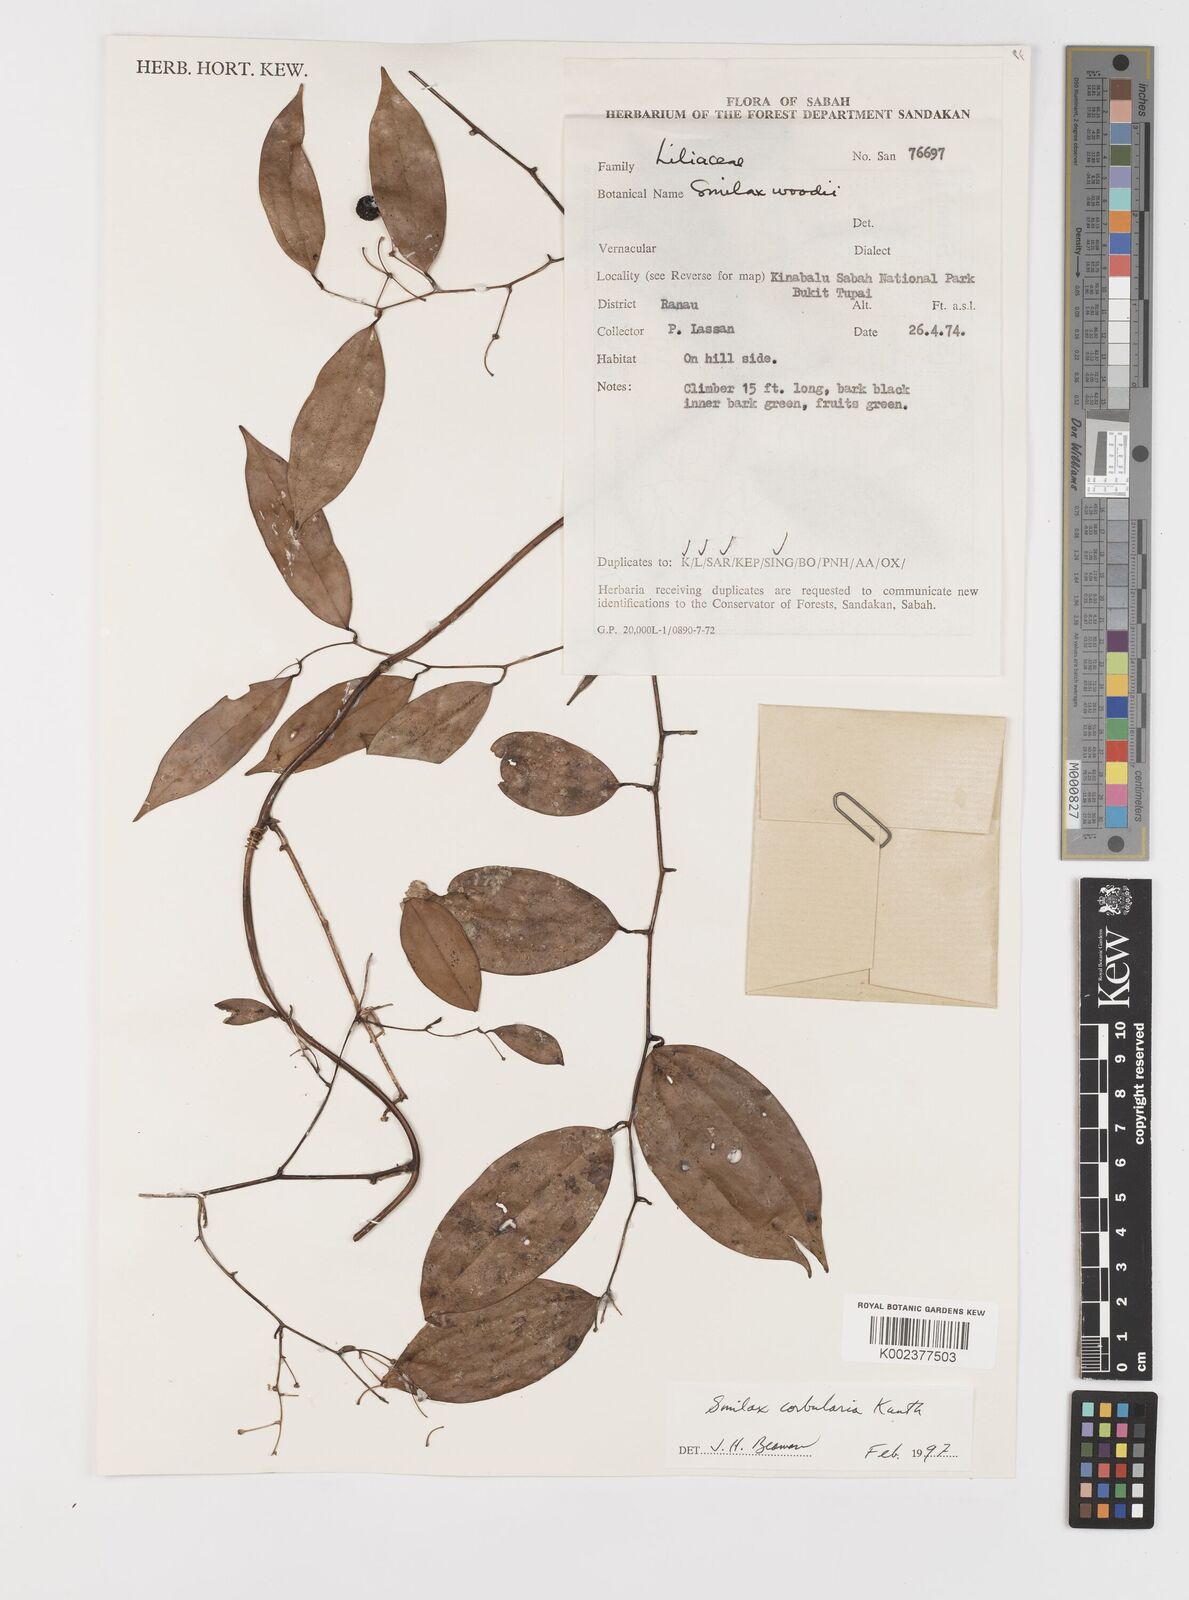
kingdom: Plantae
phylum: Tracheophyta
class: Liliopsida
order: Liliales
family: Smilacaceae
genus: Smilax
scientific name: Smilax corbularia
